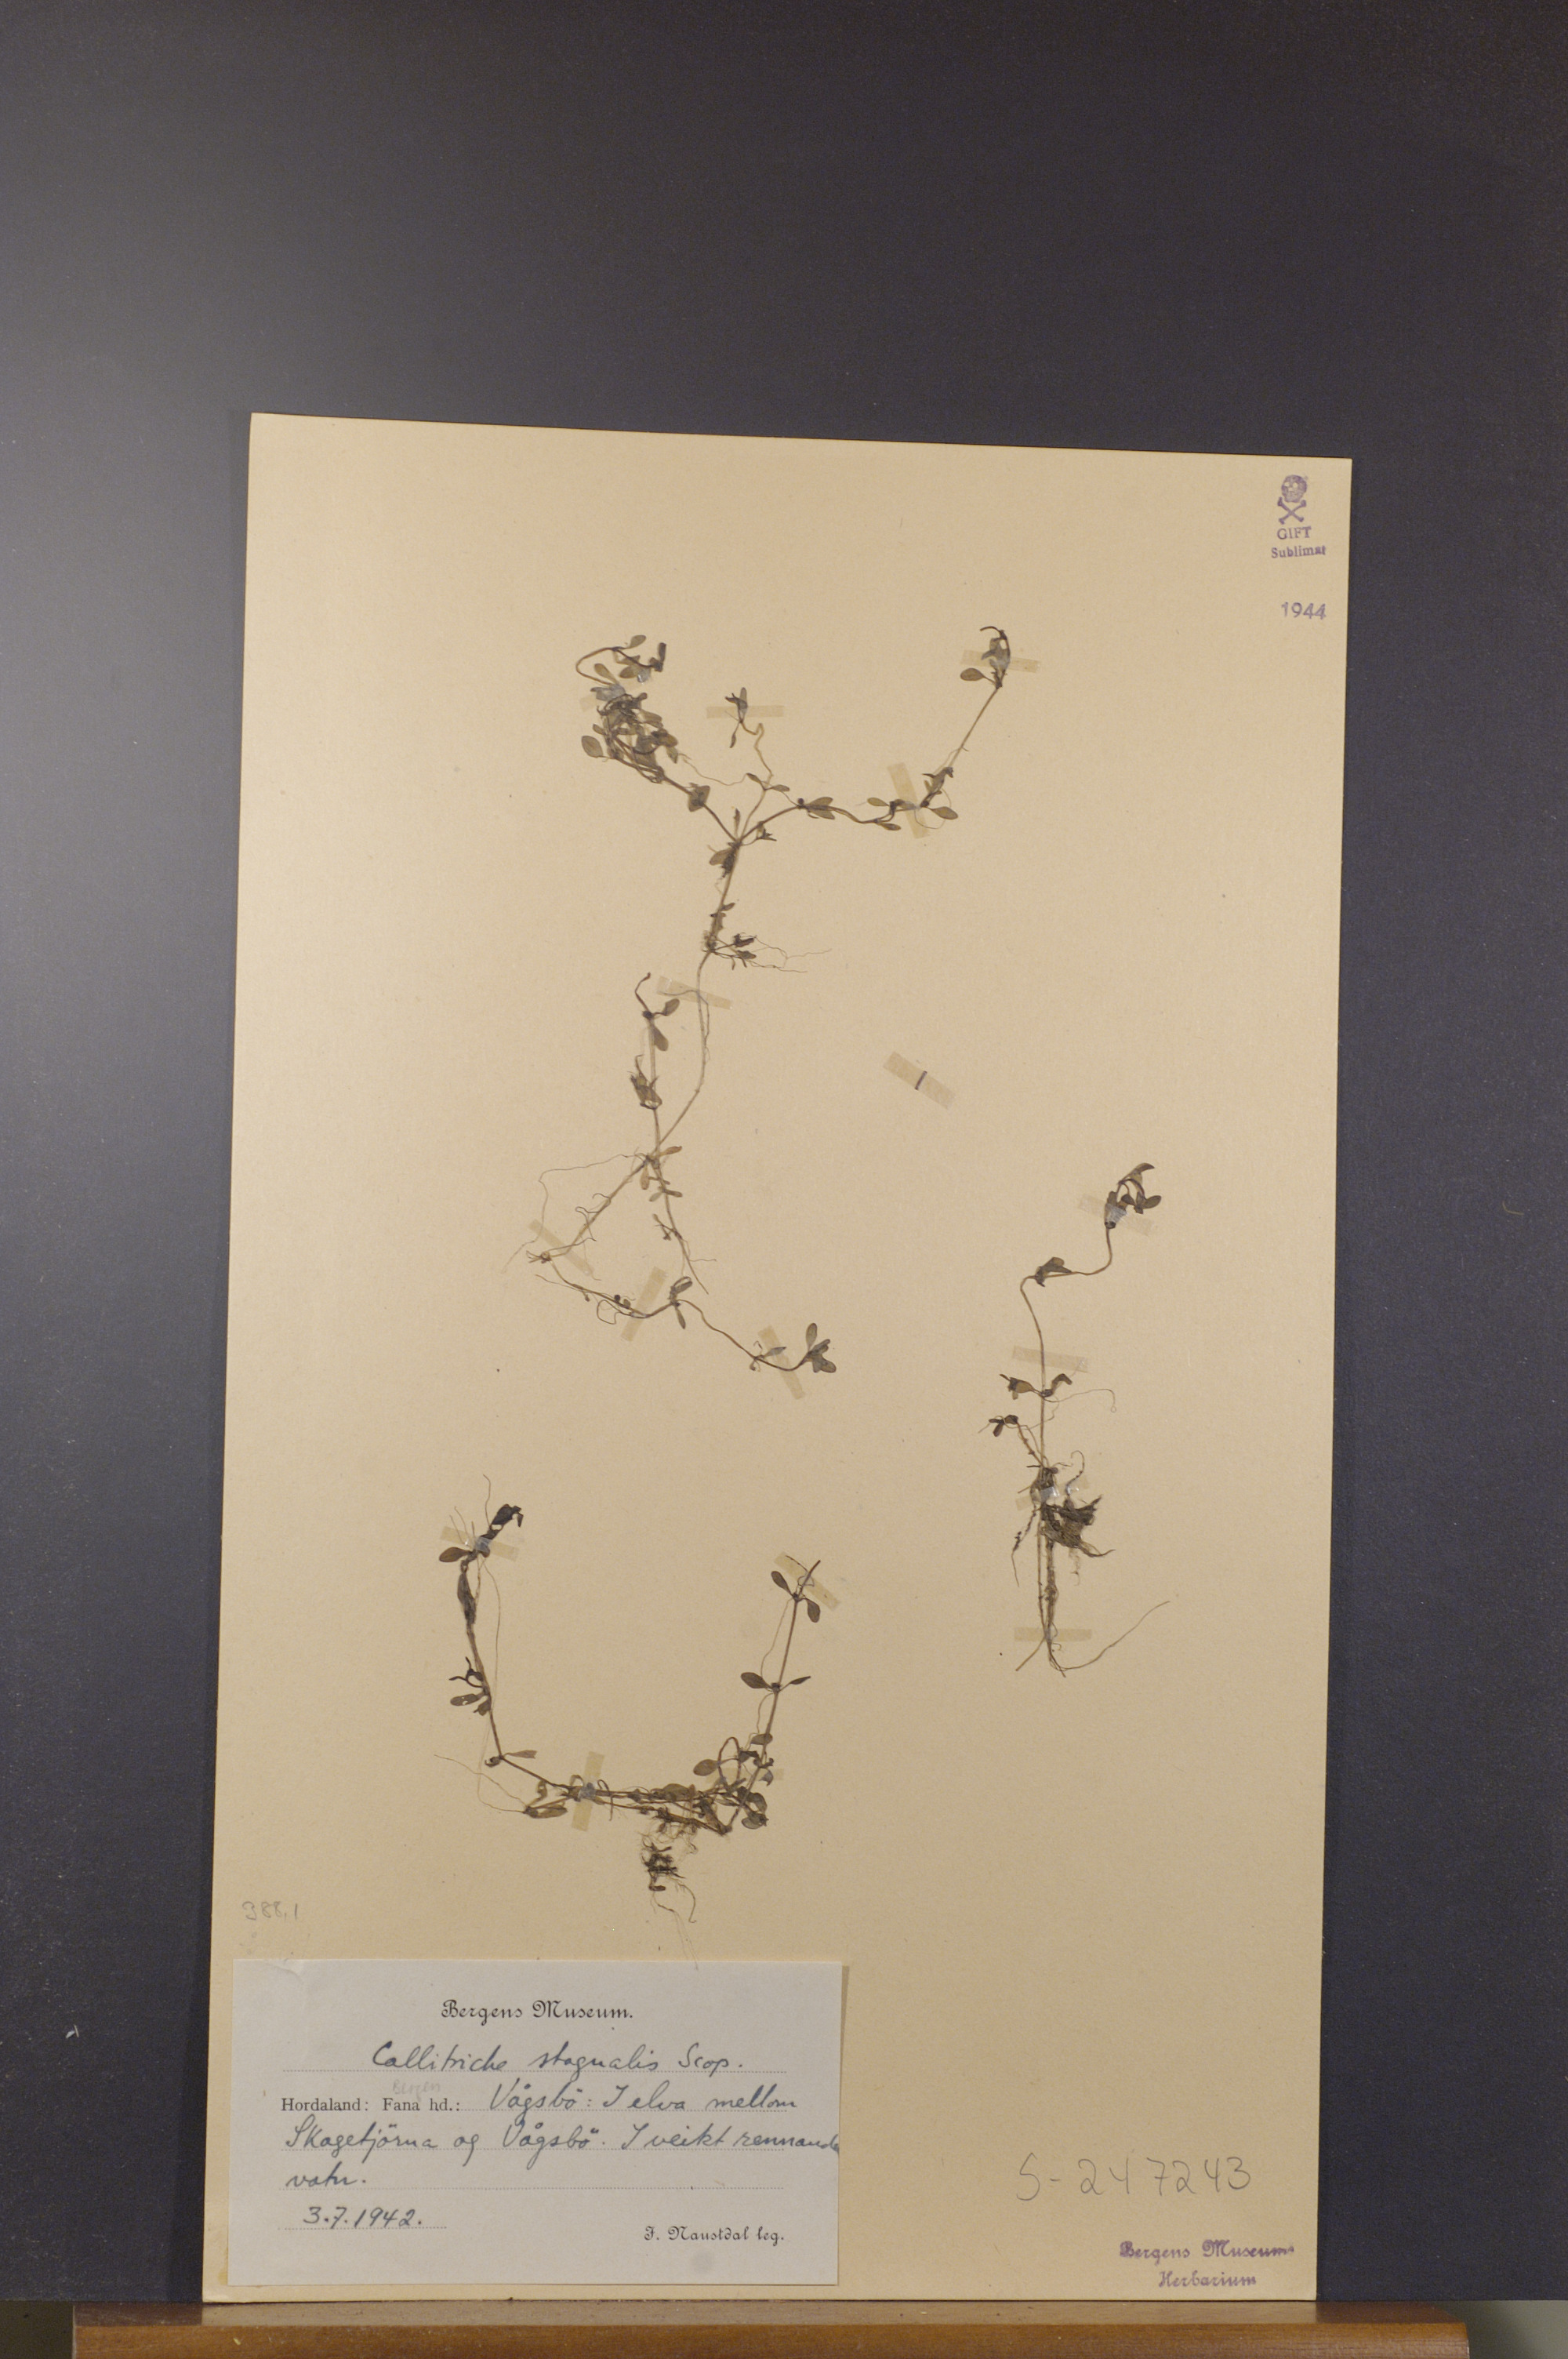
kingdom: Plantae
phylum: Tracheophyta
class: Magnoliopsida
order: Lamiales
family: Plantaginaceae
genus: Callitriche
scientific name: Callitriche stagnalis
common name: Common water-starwort
